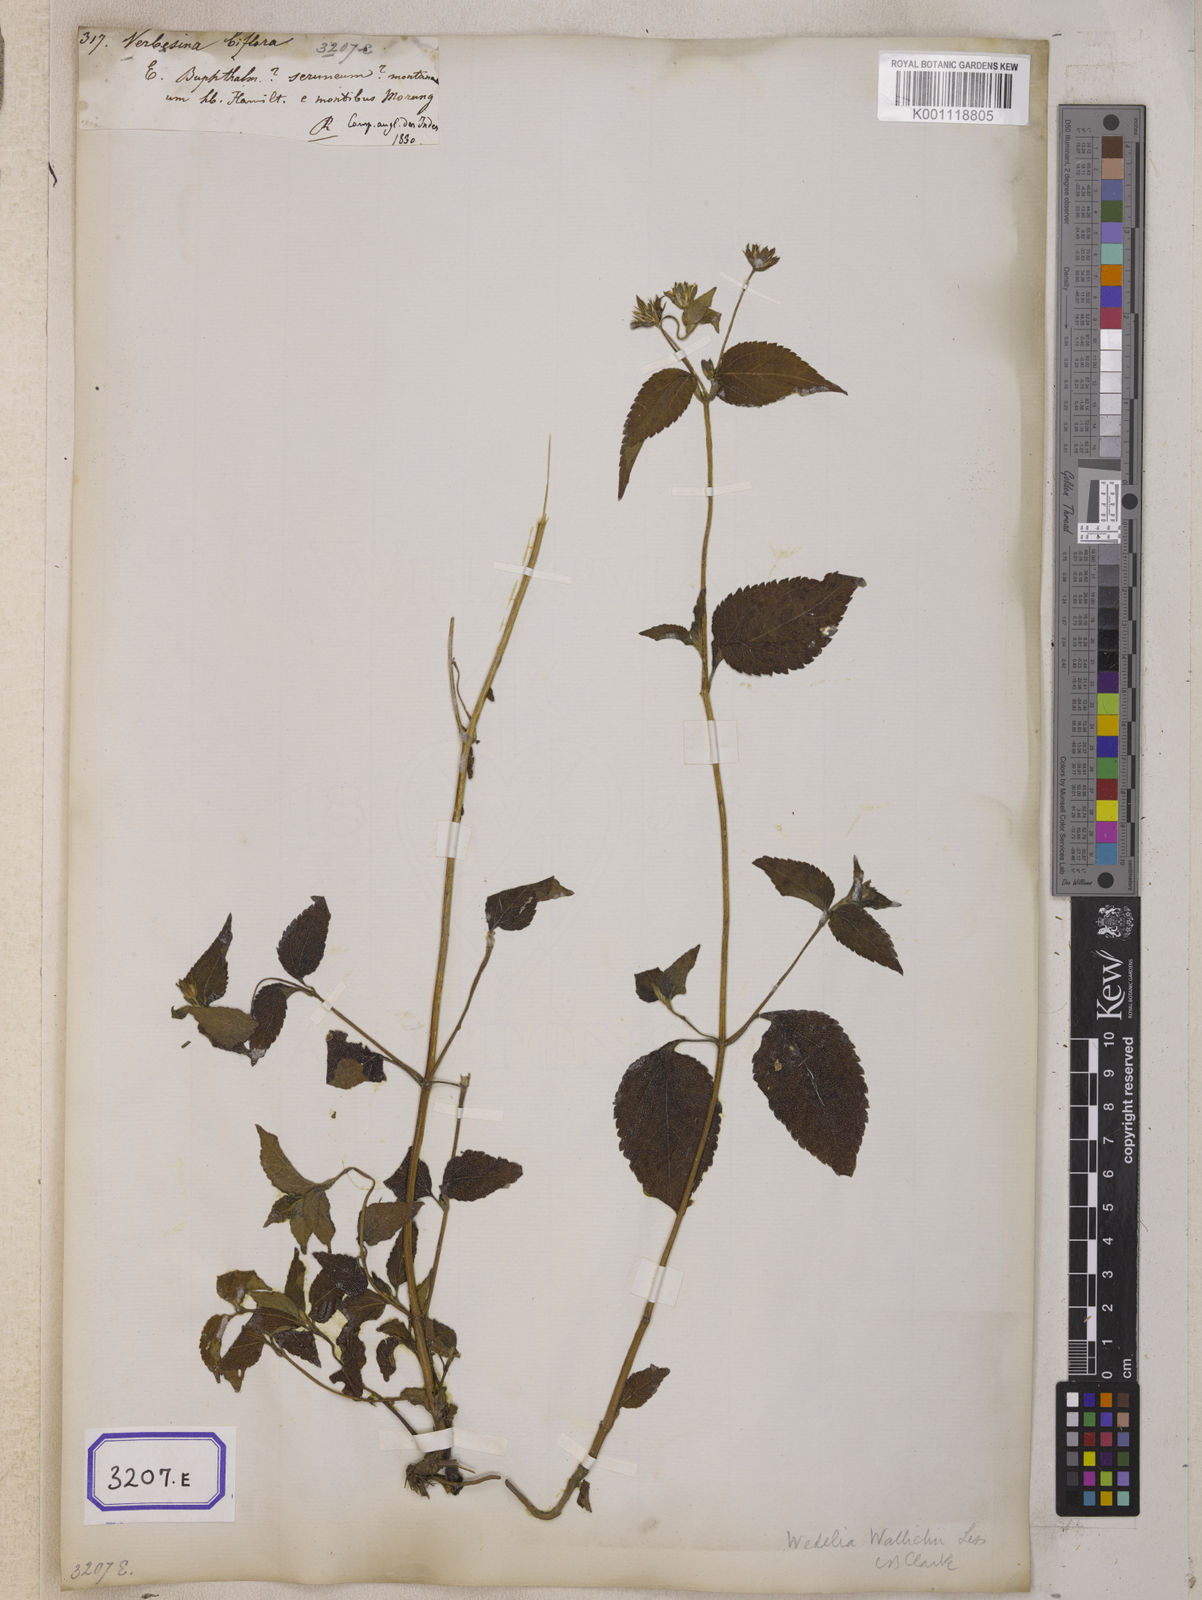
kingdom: Plantae
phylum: Tracheophyta
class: Magnoliopsida
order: Asterales
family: Asteraceae
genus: Indocypraea
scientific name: Indocypraea montana
